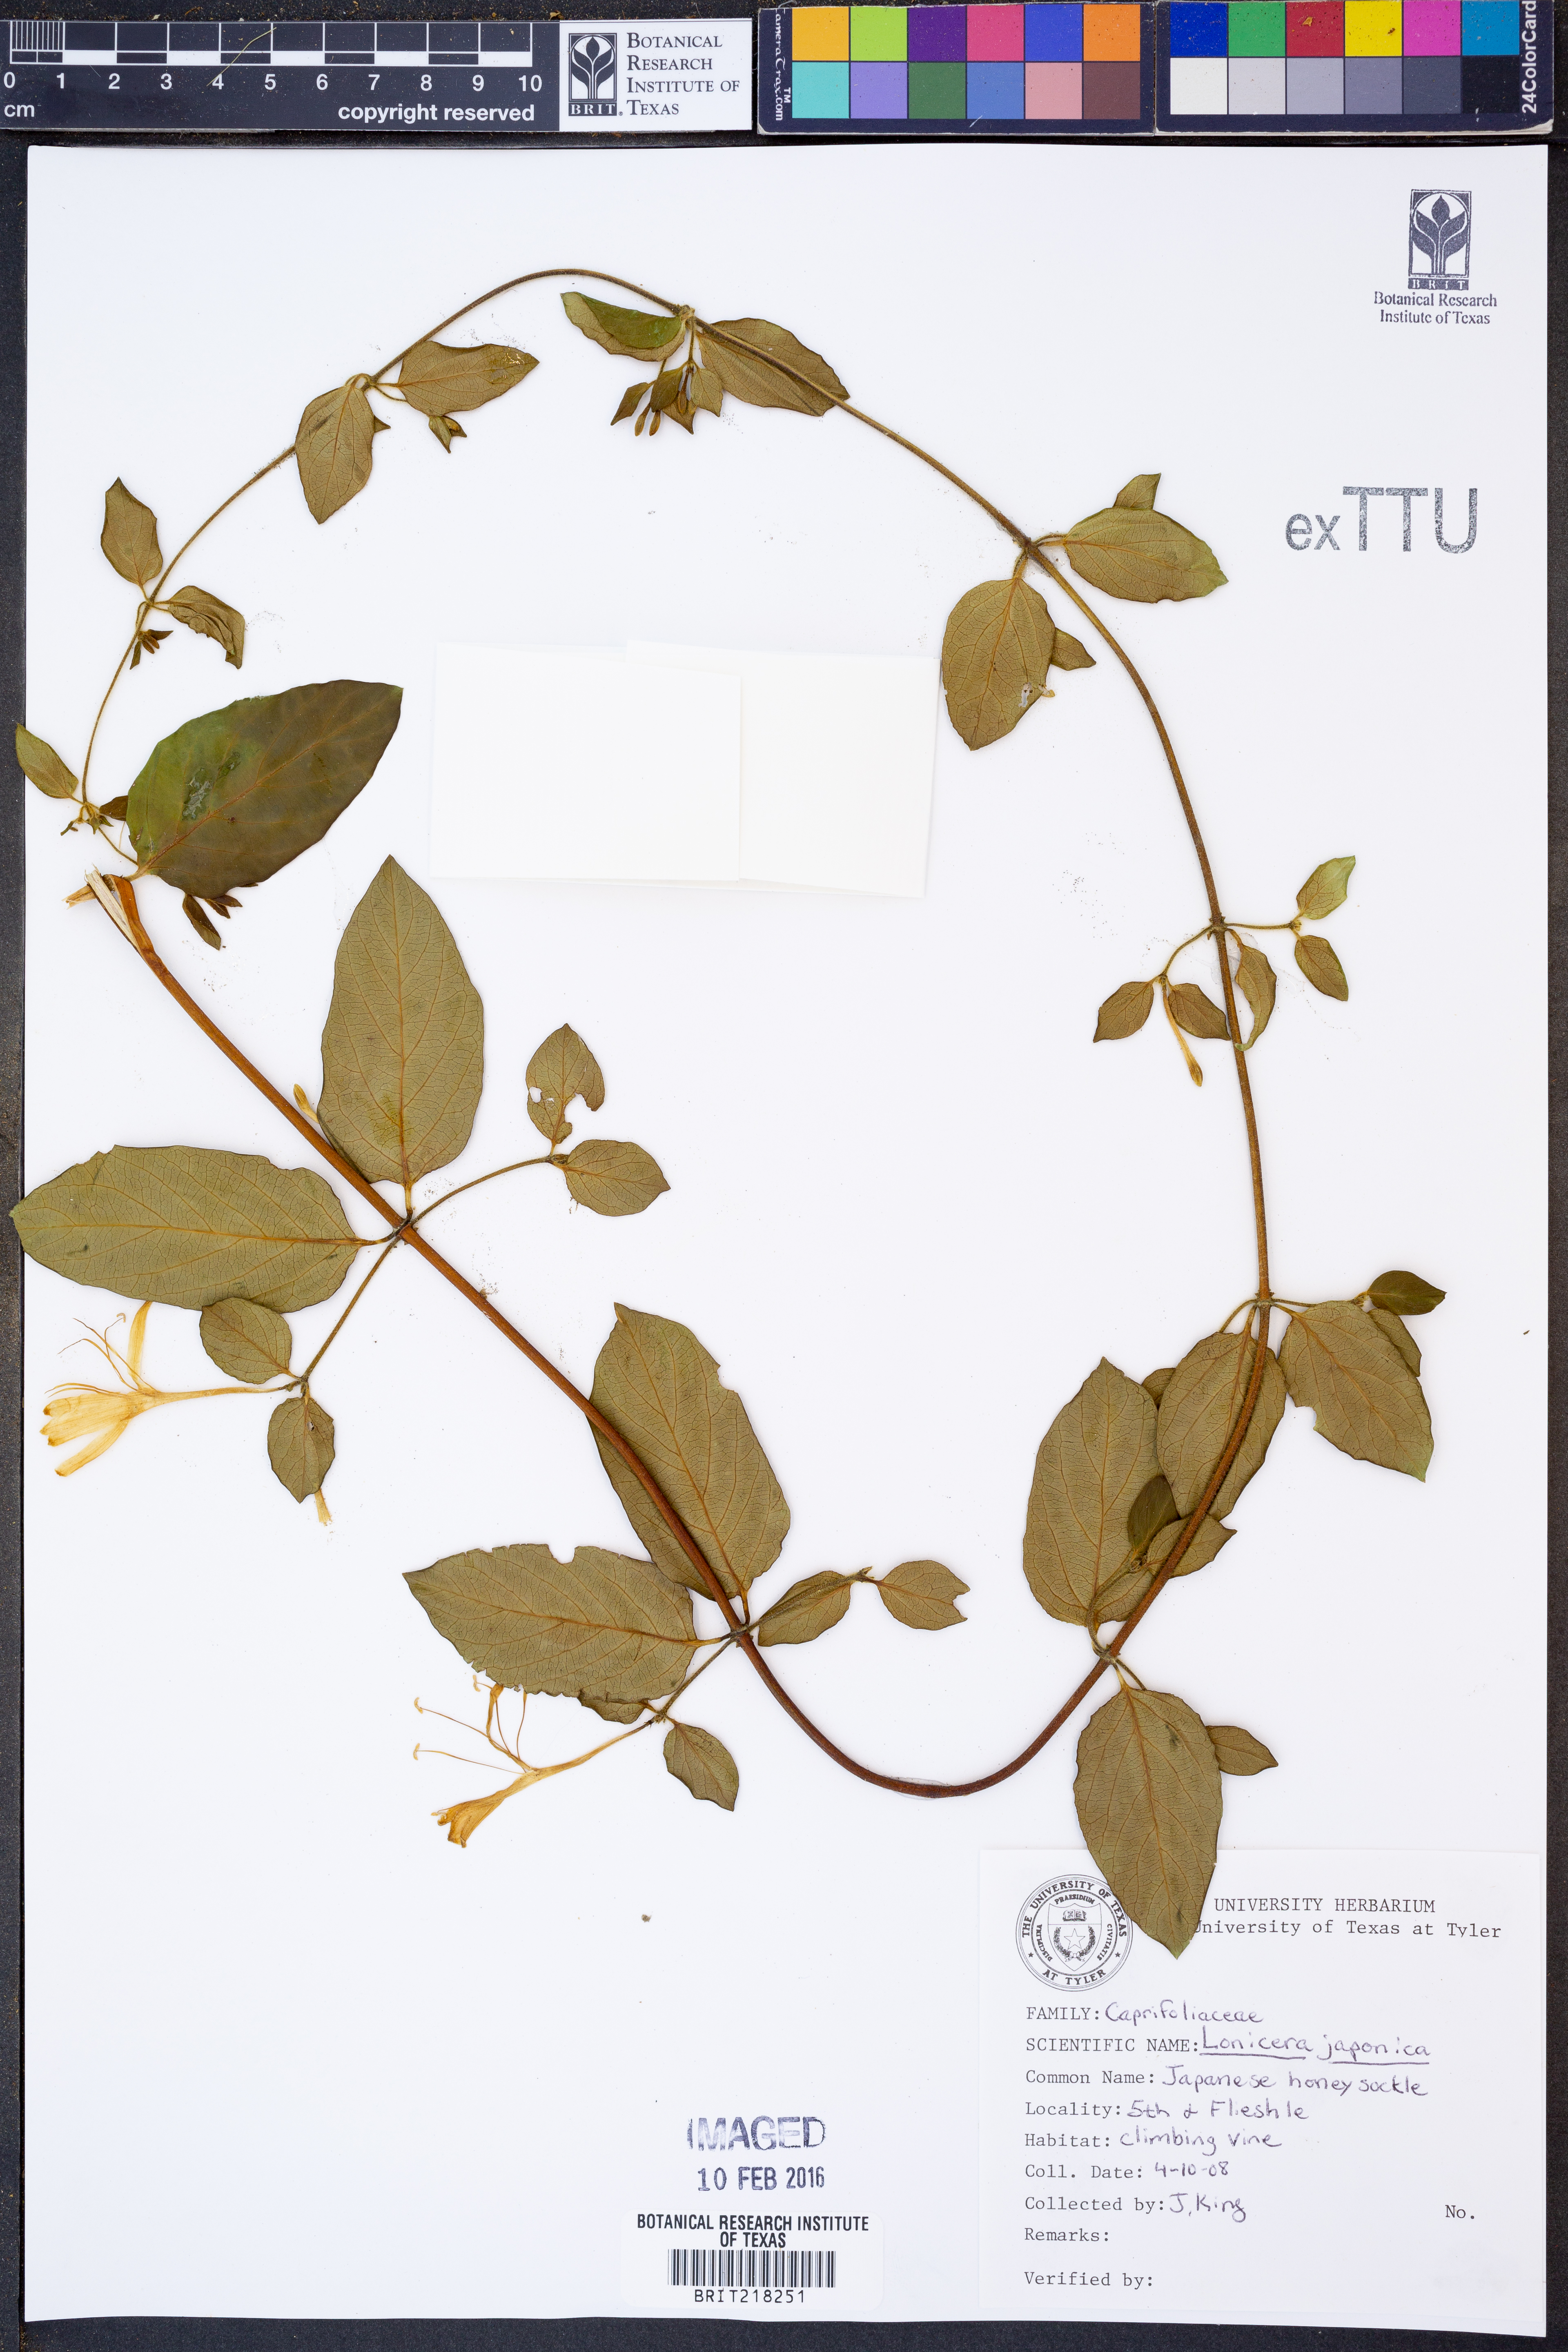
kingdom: Plantae
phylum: Tracheophyta
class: Magnoliopsida
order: Dipsacales
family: Caprifoliaceae
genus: Lonicera
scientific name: Lonicera japonica
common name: Japanese honeysuckle
